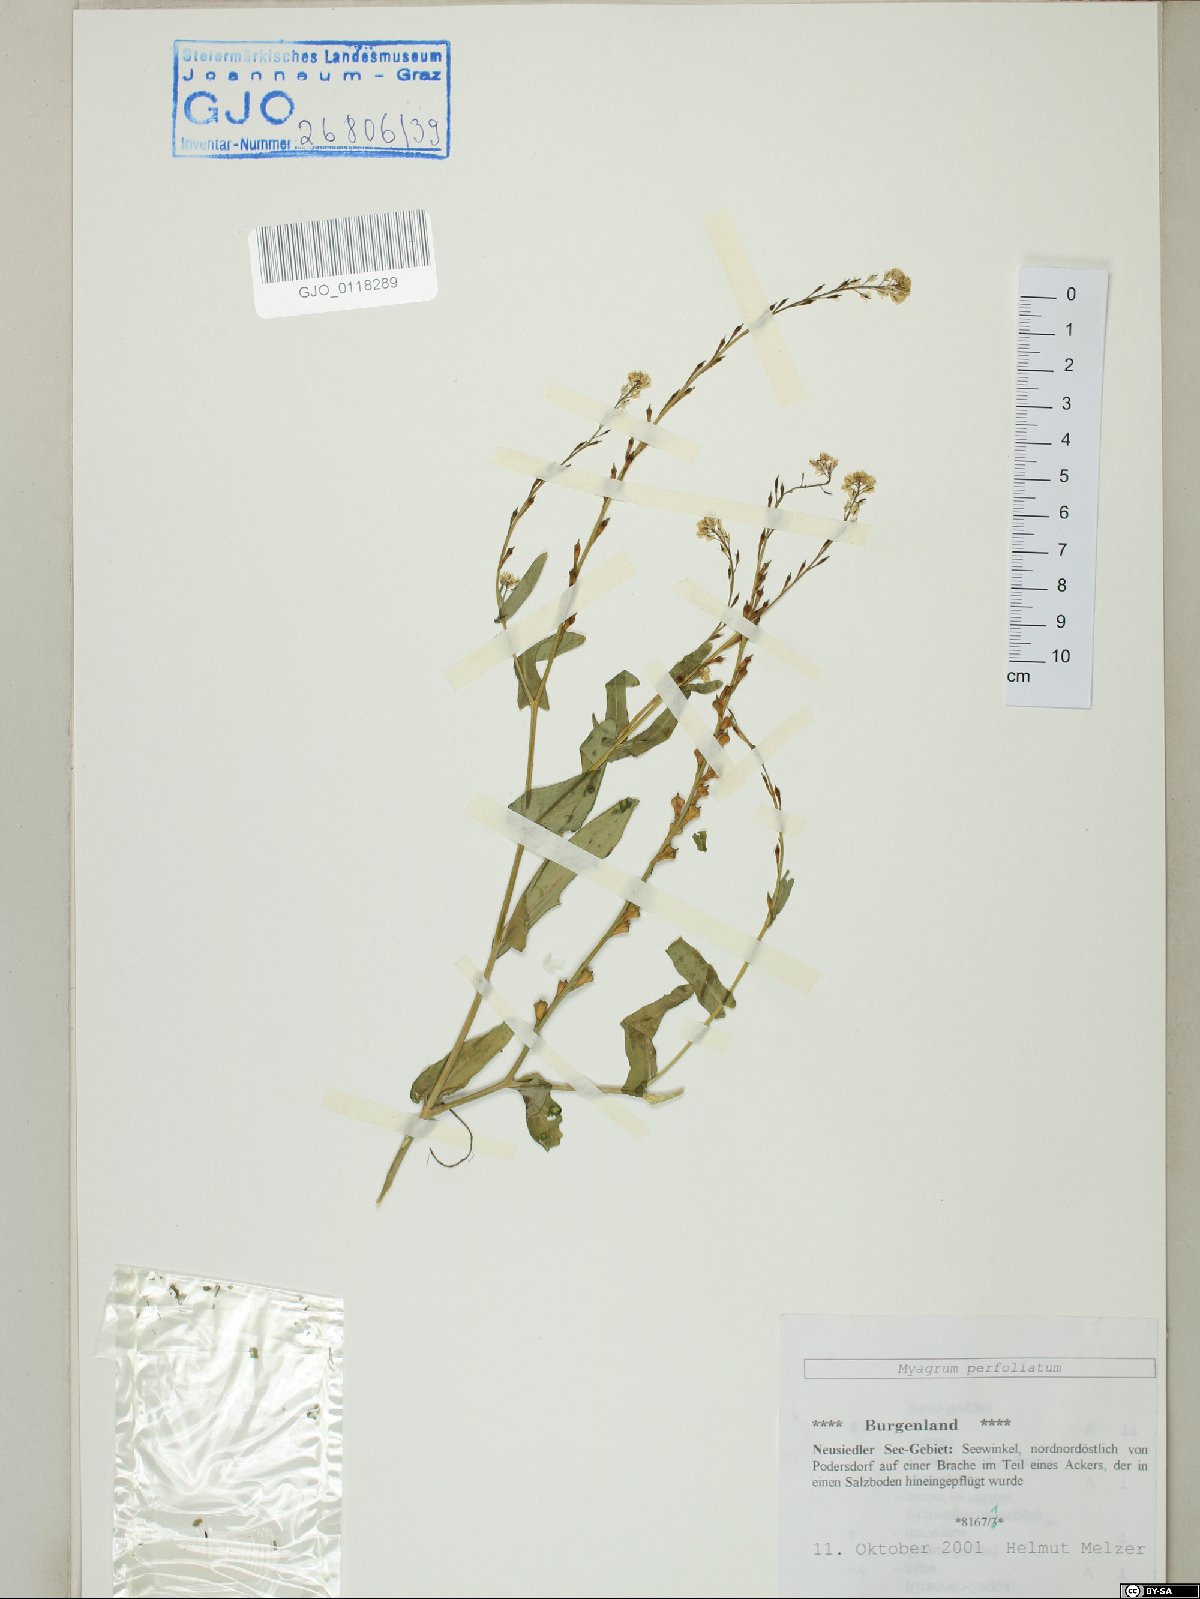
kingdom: Plantae
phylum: Tracheophyta
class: Magnoliopsida
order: Brassicales
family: Brassicaceae
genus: Myagrum
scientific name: Myagrum perfoliatum
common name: Mitre cress
